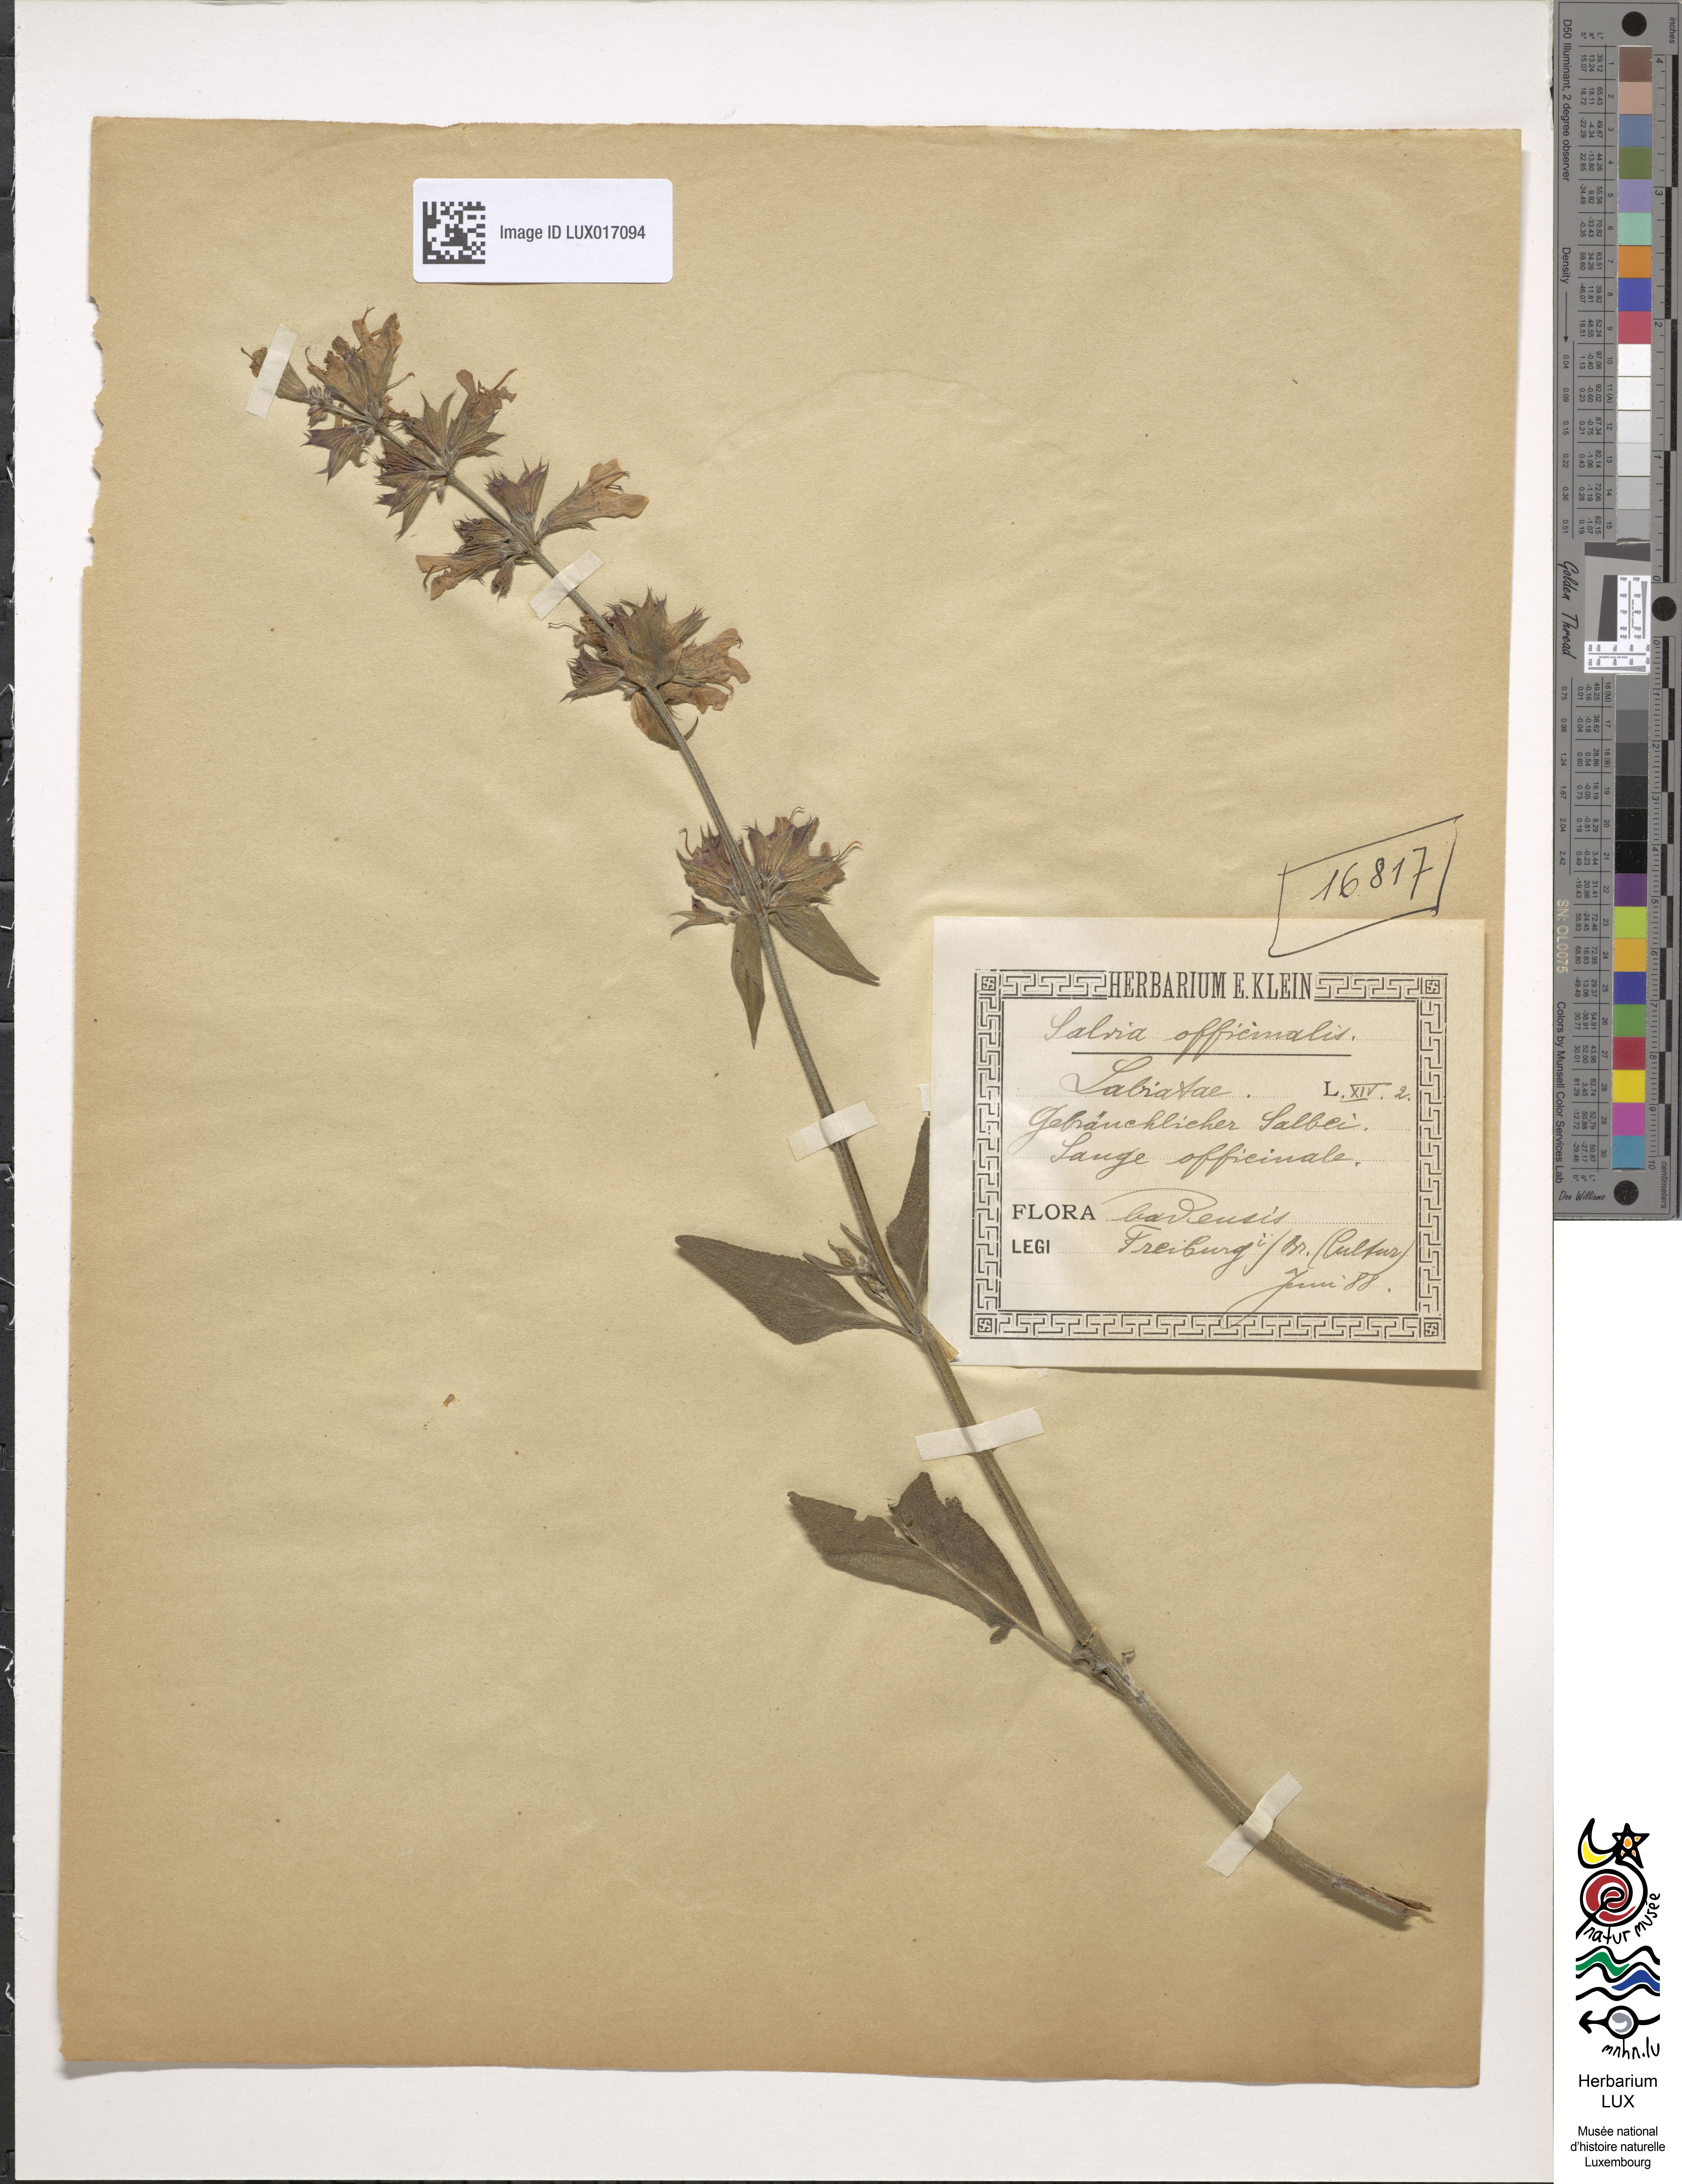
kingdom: Plantae
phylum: Tracheophyta
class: Magnoliopsida
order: Lamiales
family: Lamiaceae
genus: Salvia
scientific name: Salvia officinalis
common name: Sage
